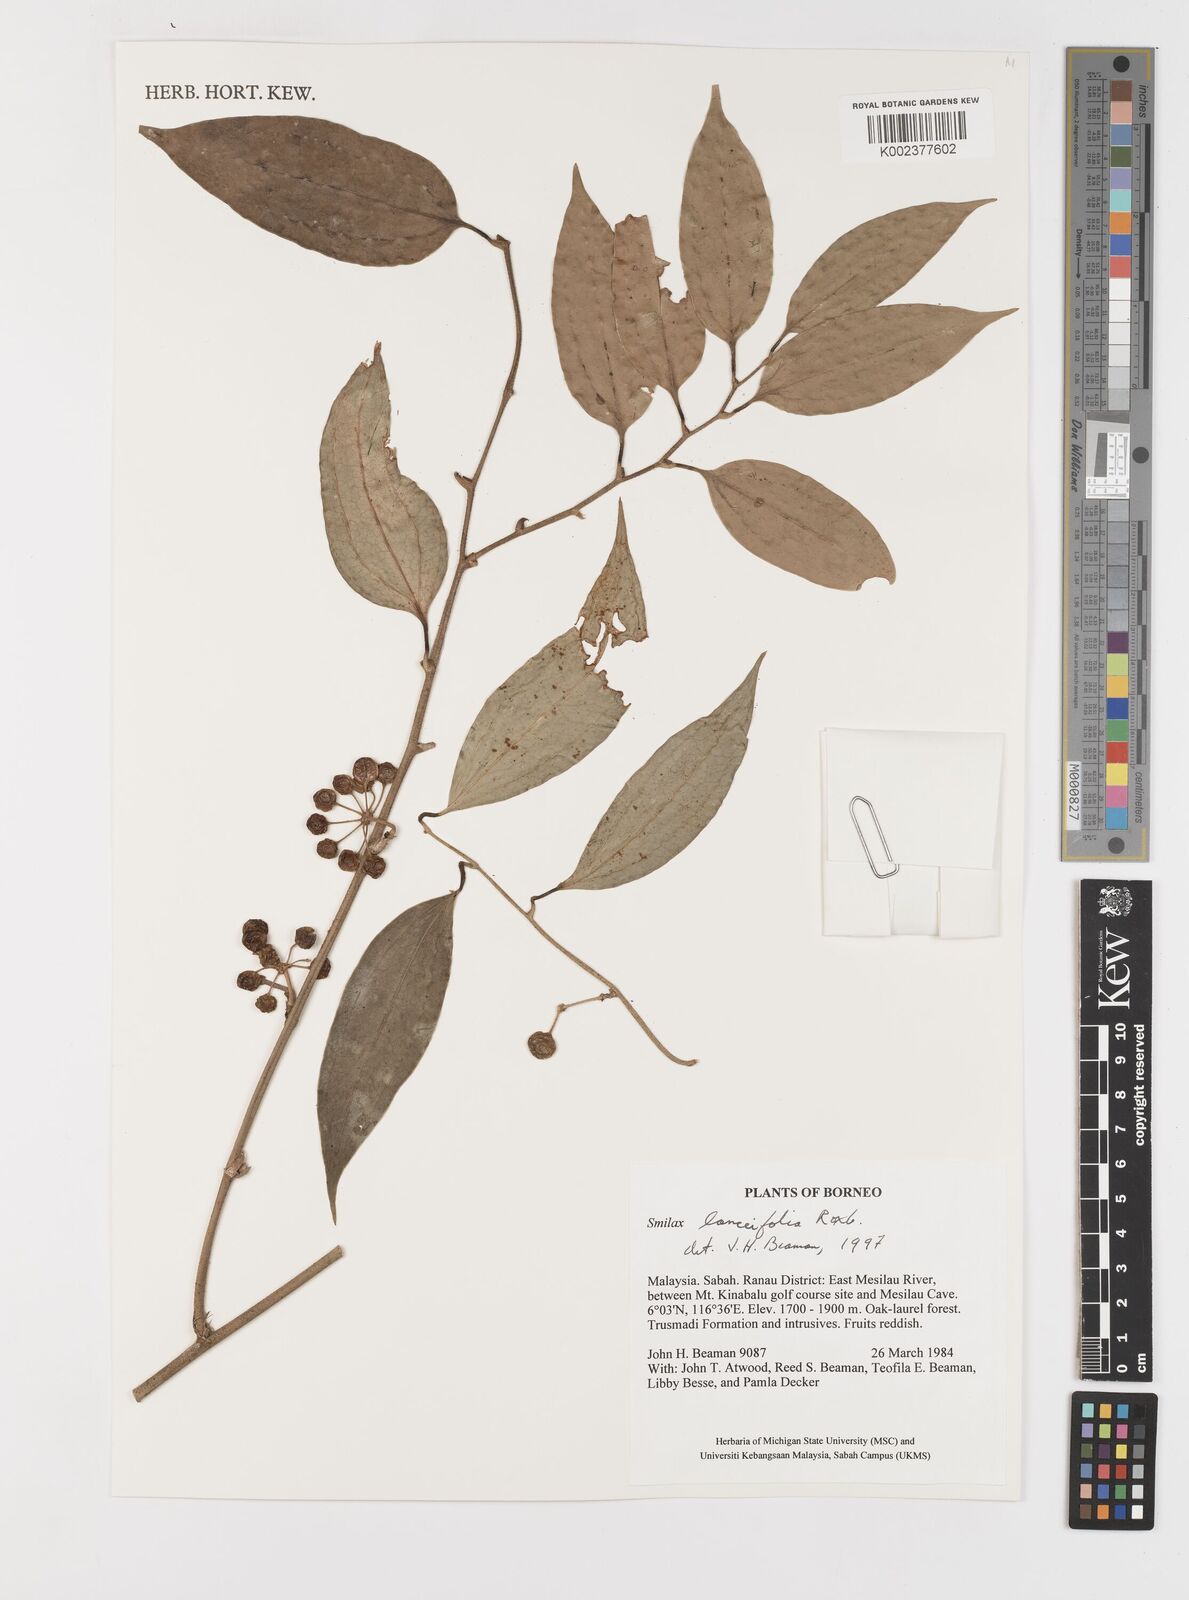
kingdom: Plantae
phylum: Tracheophyta
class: Liliopsida
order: Liliales
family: Smilacaceae
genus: Smilax
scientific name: Smilax lanceifolia
